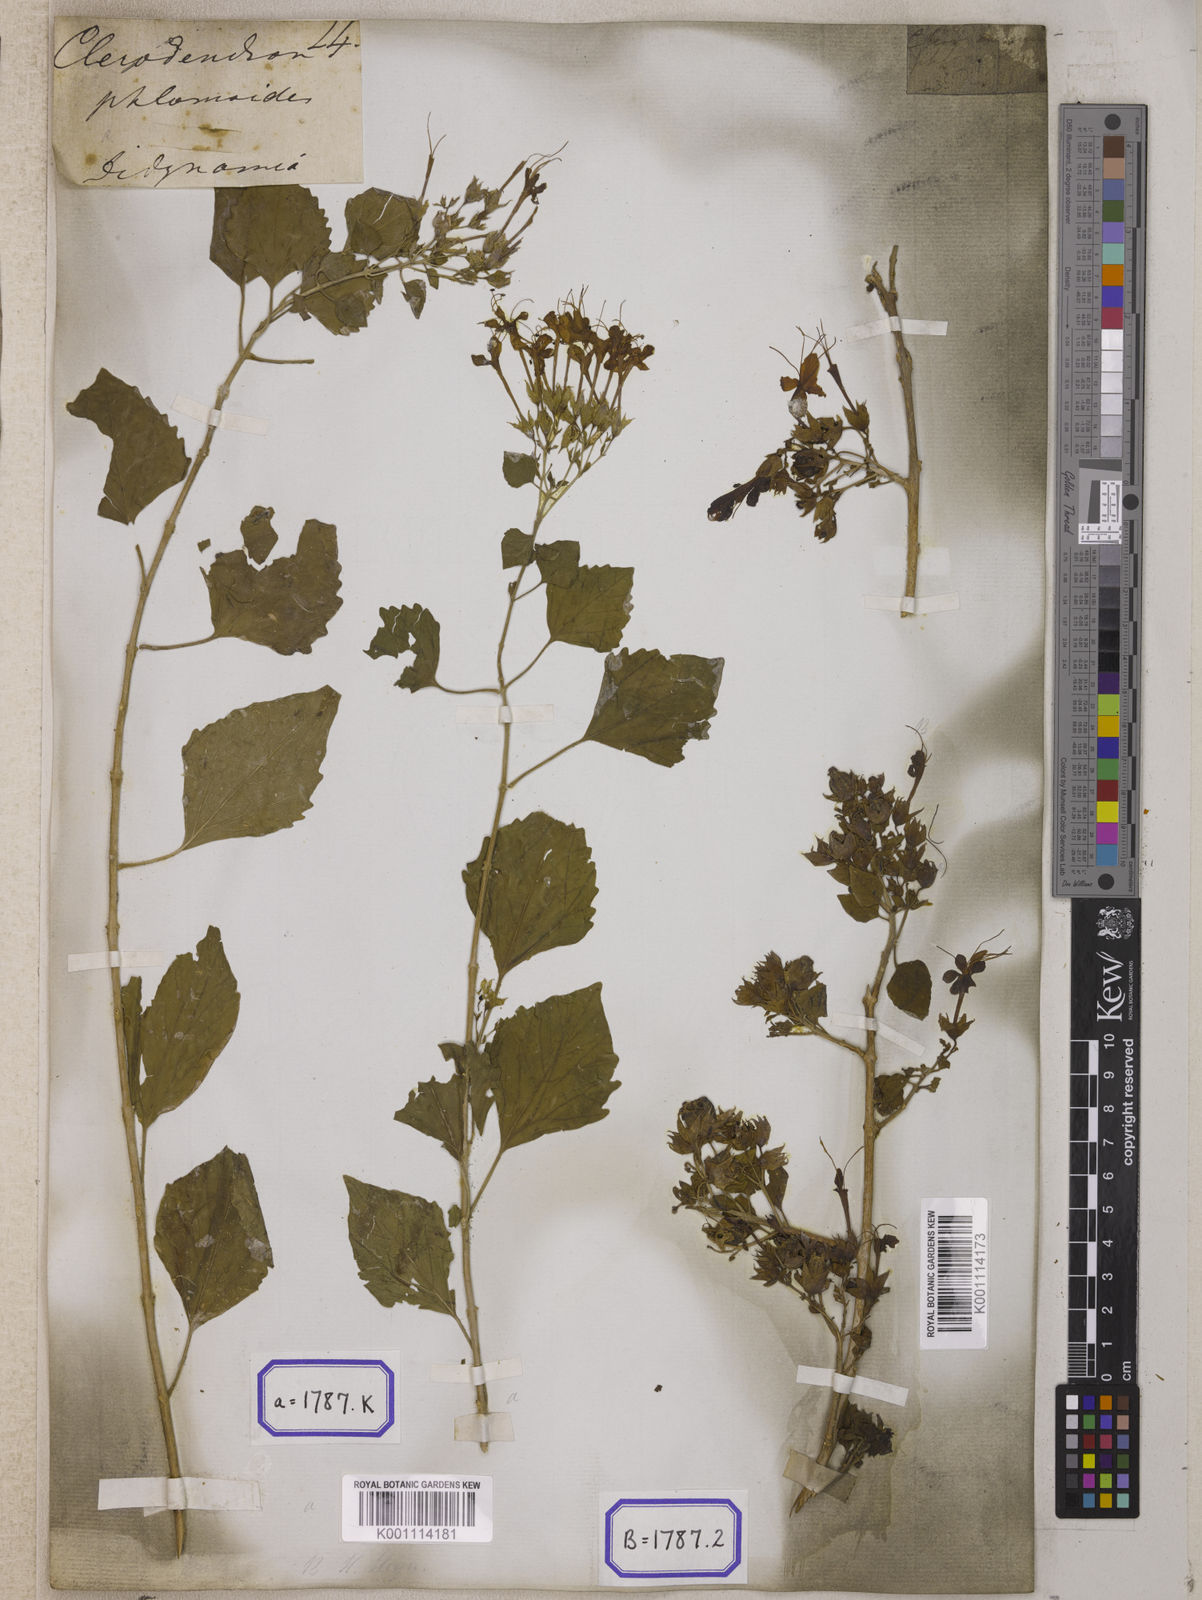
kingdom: Plantae
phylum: Tracheophyta
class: Magnoliopsida
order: Lamiales
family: Lamiaceae
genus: Clerodendrum
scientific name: Clerodendrum
